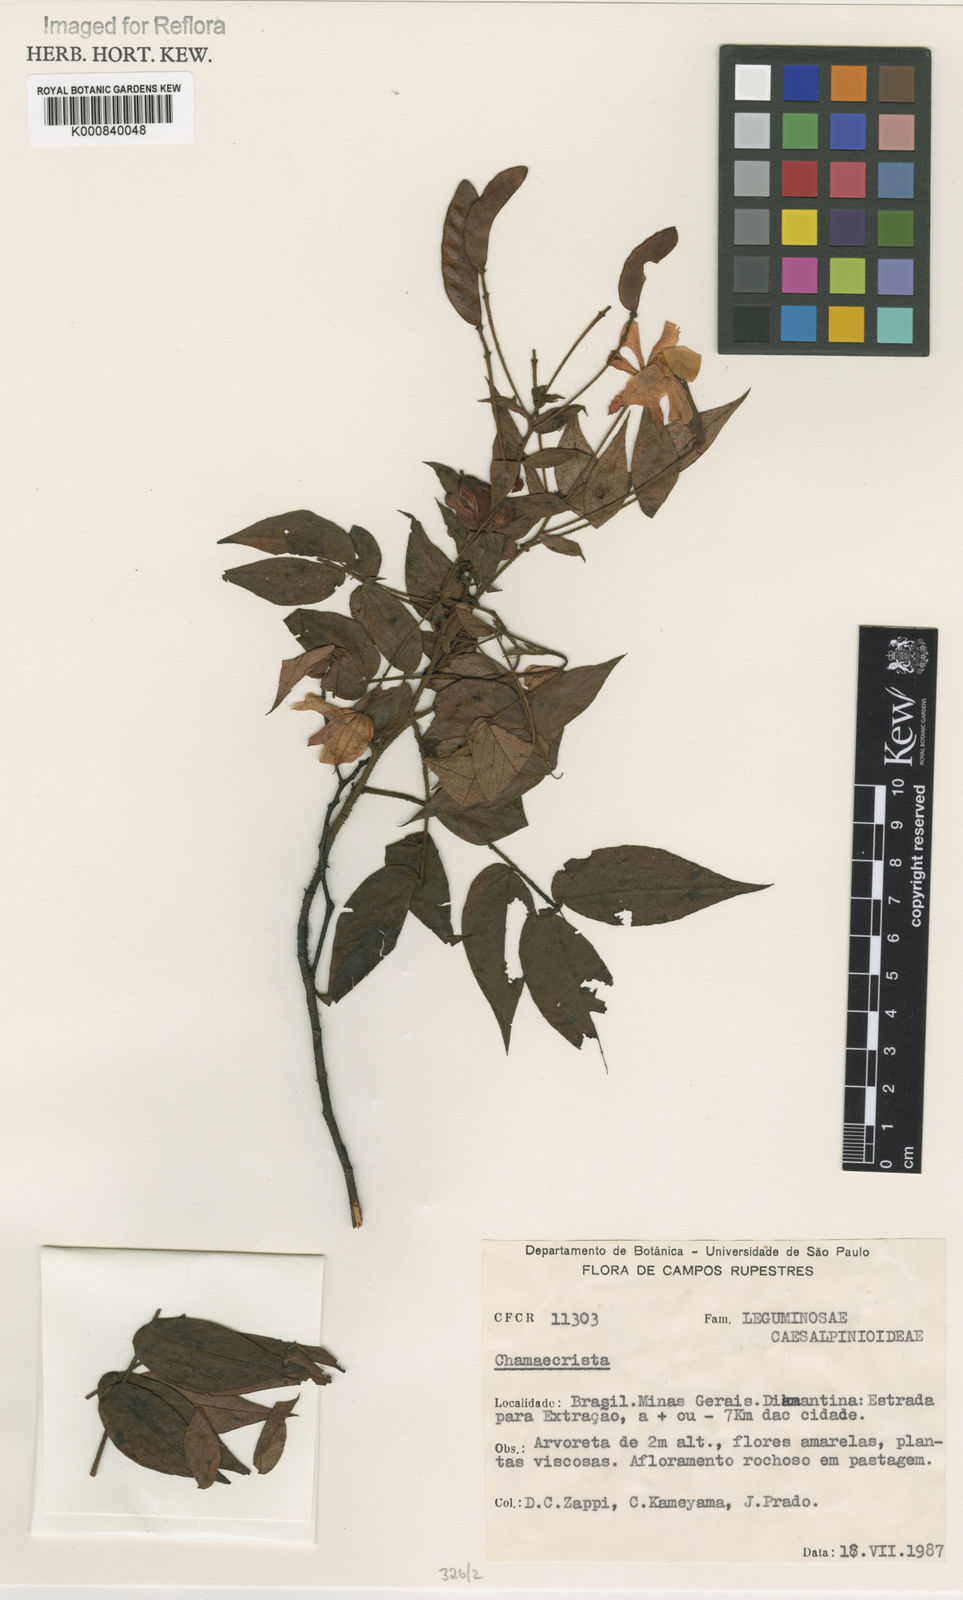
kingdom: Plantae
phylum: Tracheophyta
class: Magnoliopsida
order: Fabales
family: Fabaceae
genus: Chamaecrista
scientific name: Chamaecrista
